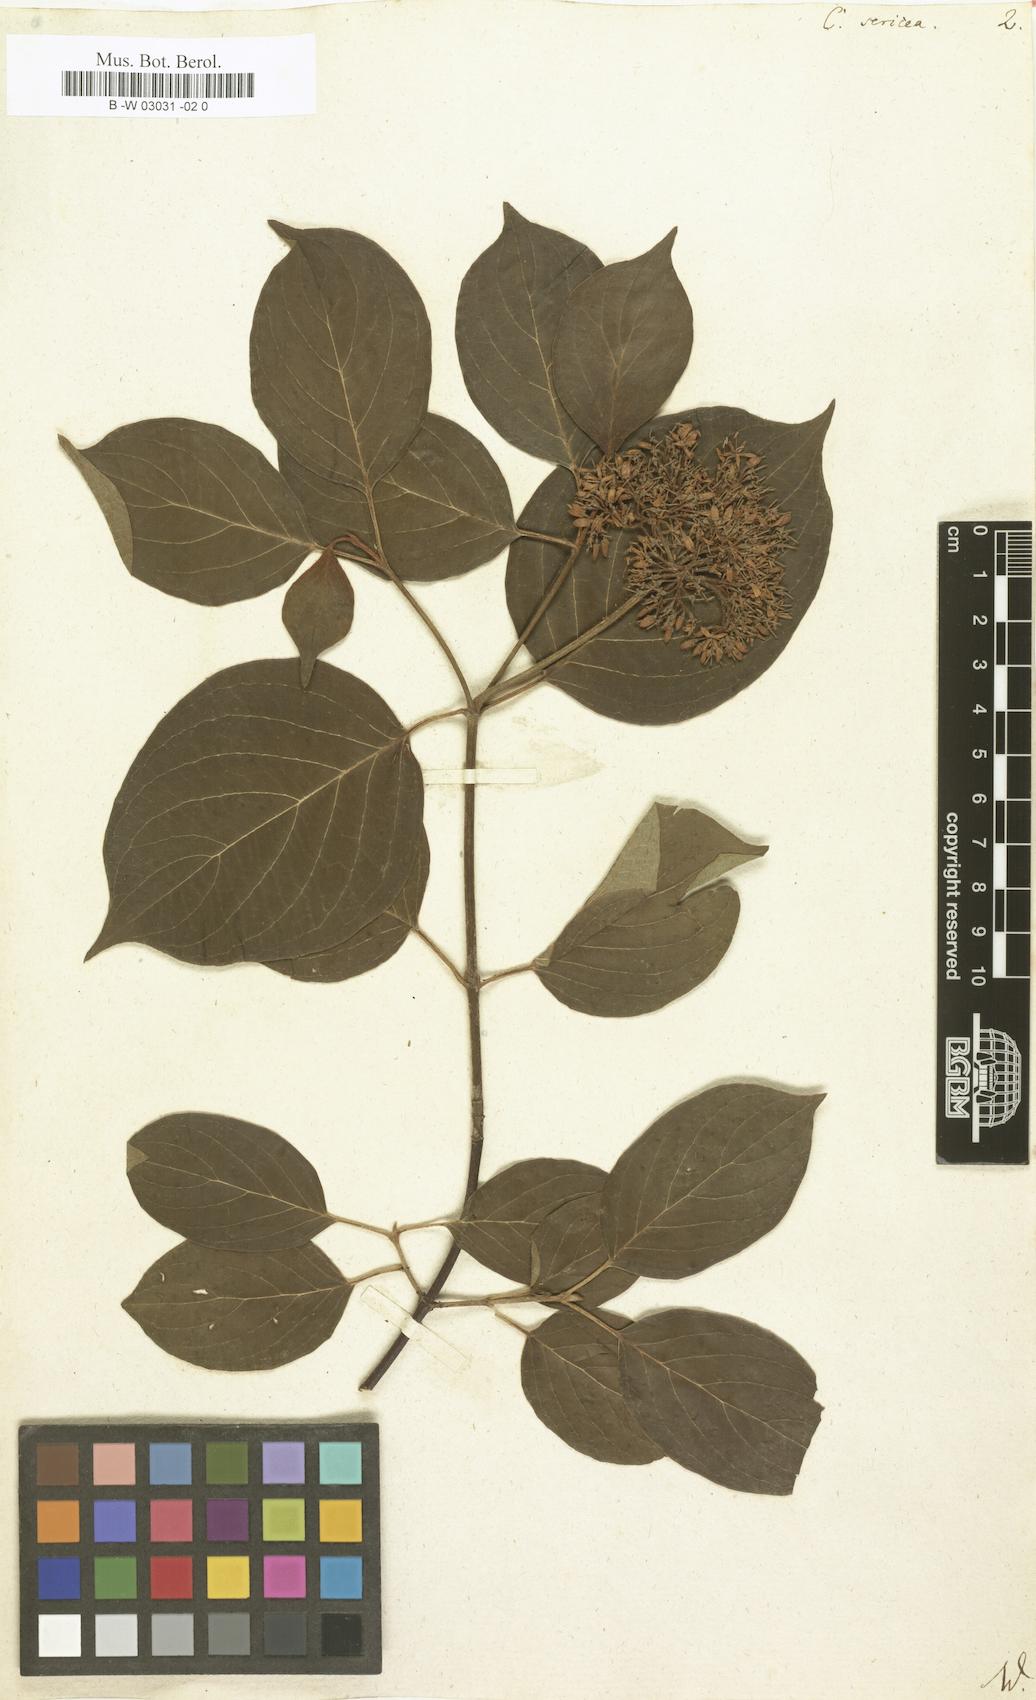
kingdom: Plantae
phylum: Tracheophyta
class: Magnoliopsida
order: Cornales
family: Cornaceae
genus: Cornus
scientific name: Cornus sericea
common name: Red-osier dogwood
